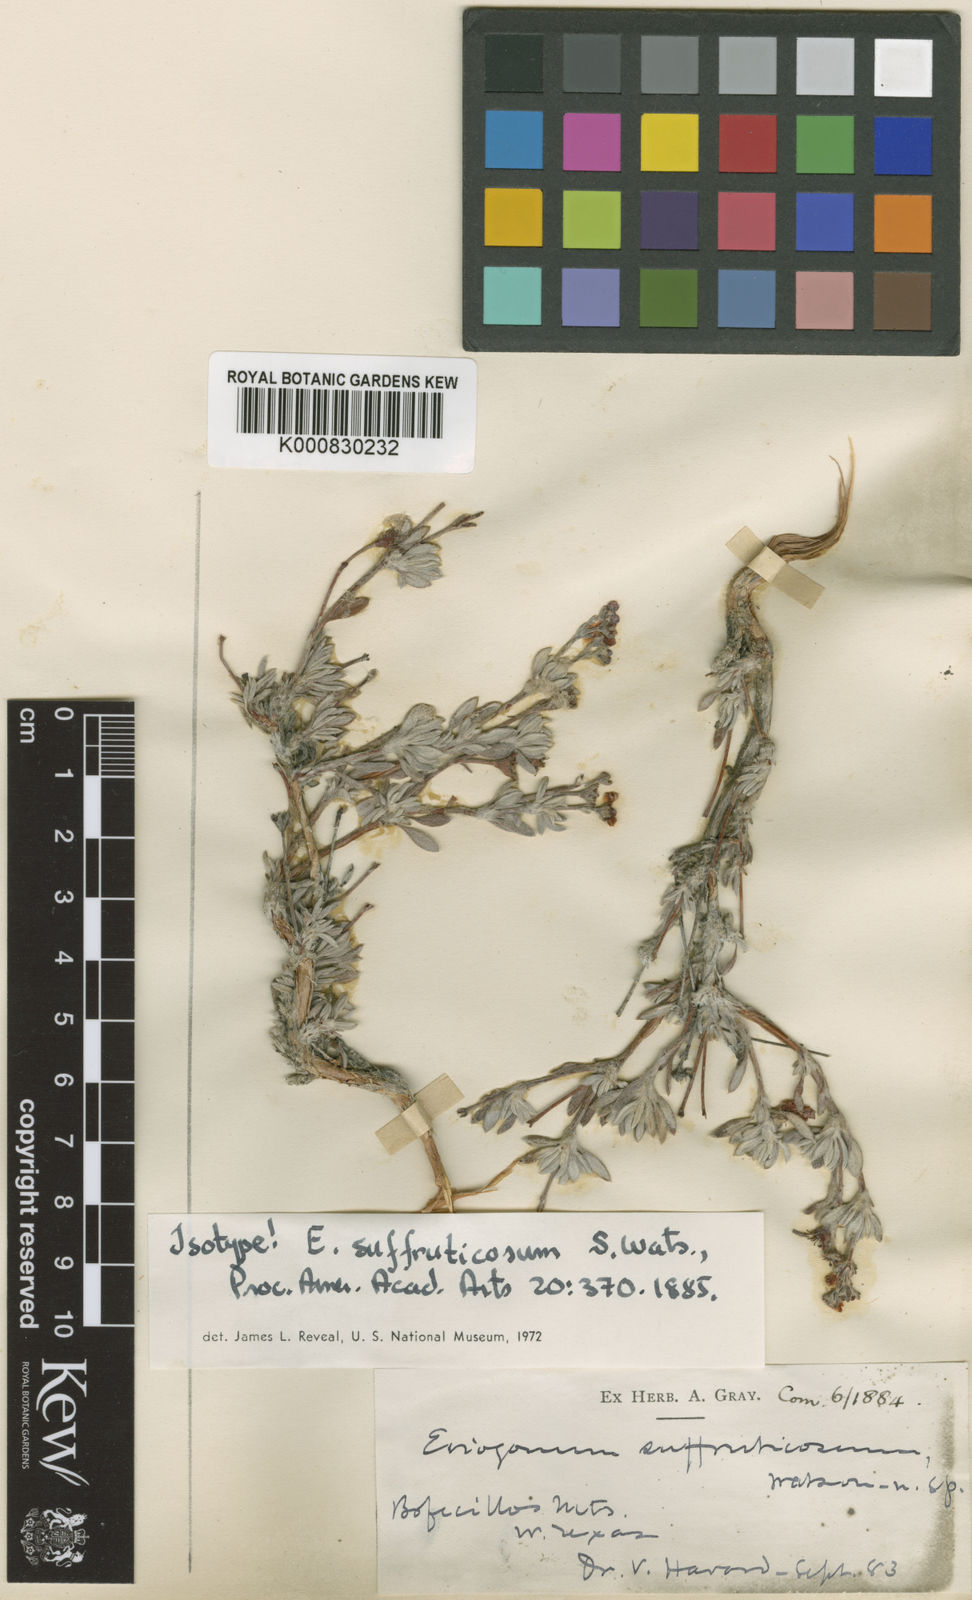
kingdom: Plantae
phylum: Tracheophyta
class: Magnoliopsida
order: Caryophyllales
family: Polygonaceae
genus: Eriogonum
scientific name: Eriogonum suffruticosum
